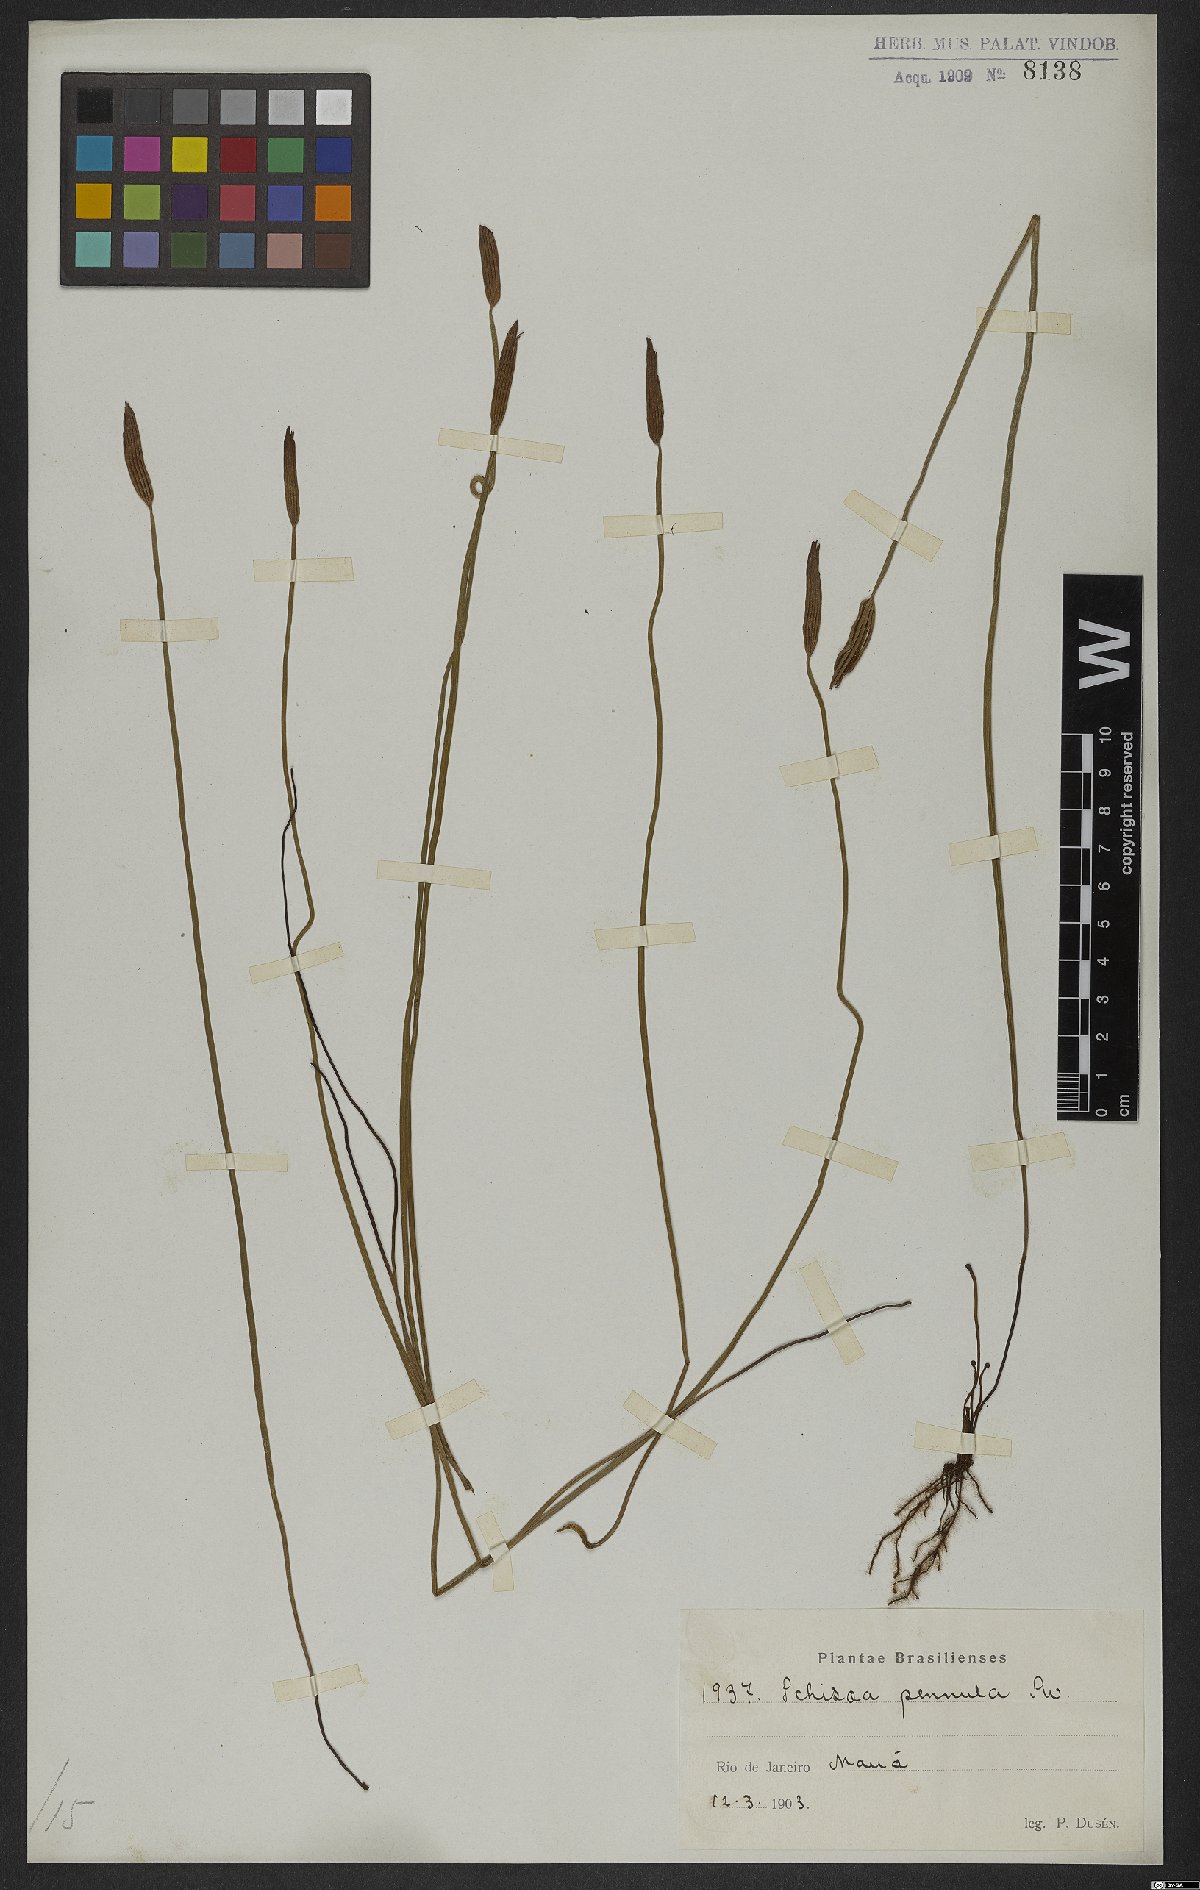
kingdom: Plantae
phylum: Tracheophyta
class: Polypodiopsida
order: Schizaeales
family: Schizaeaceae
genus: Actinostachys
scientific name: Actinostachys pennula
